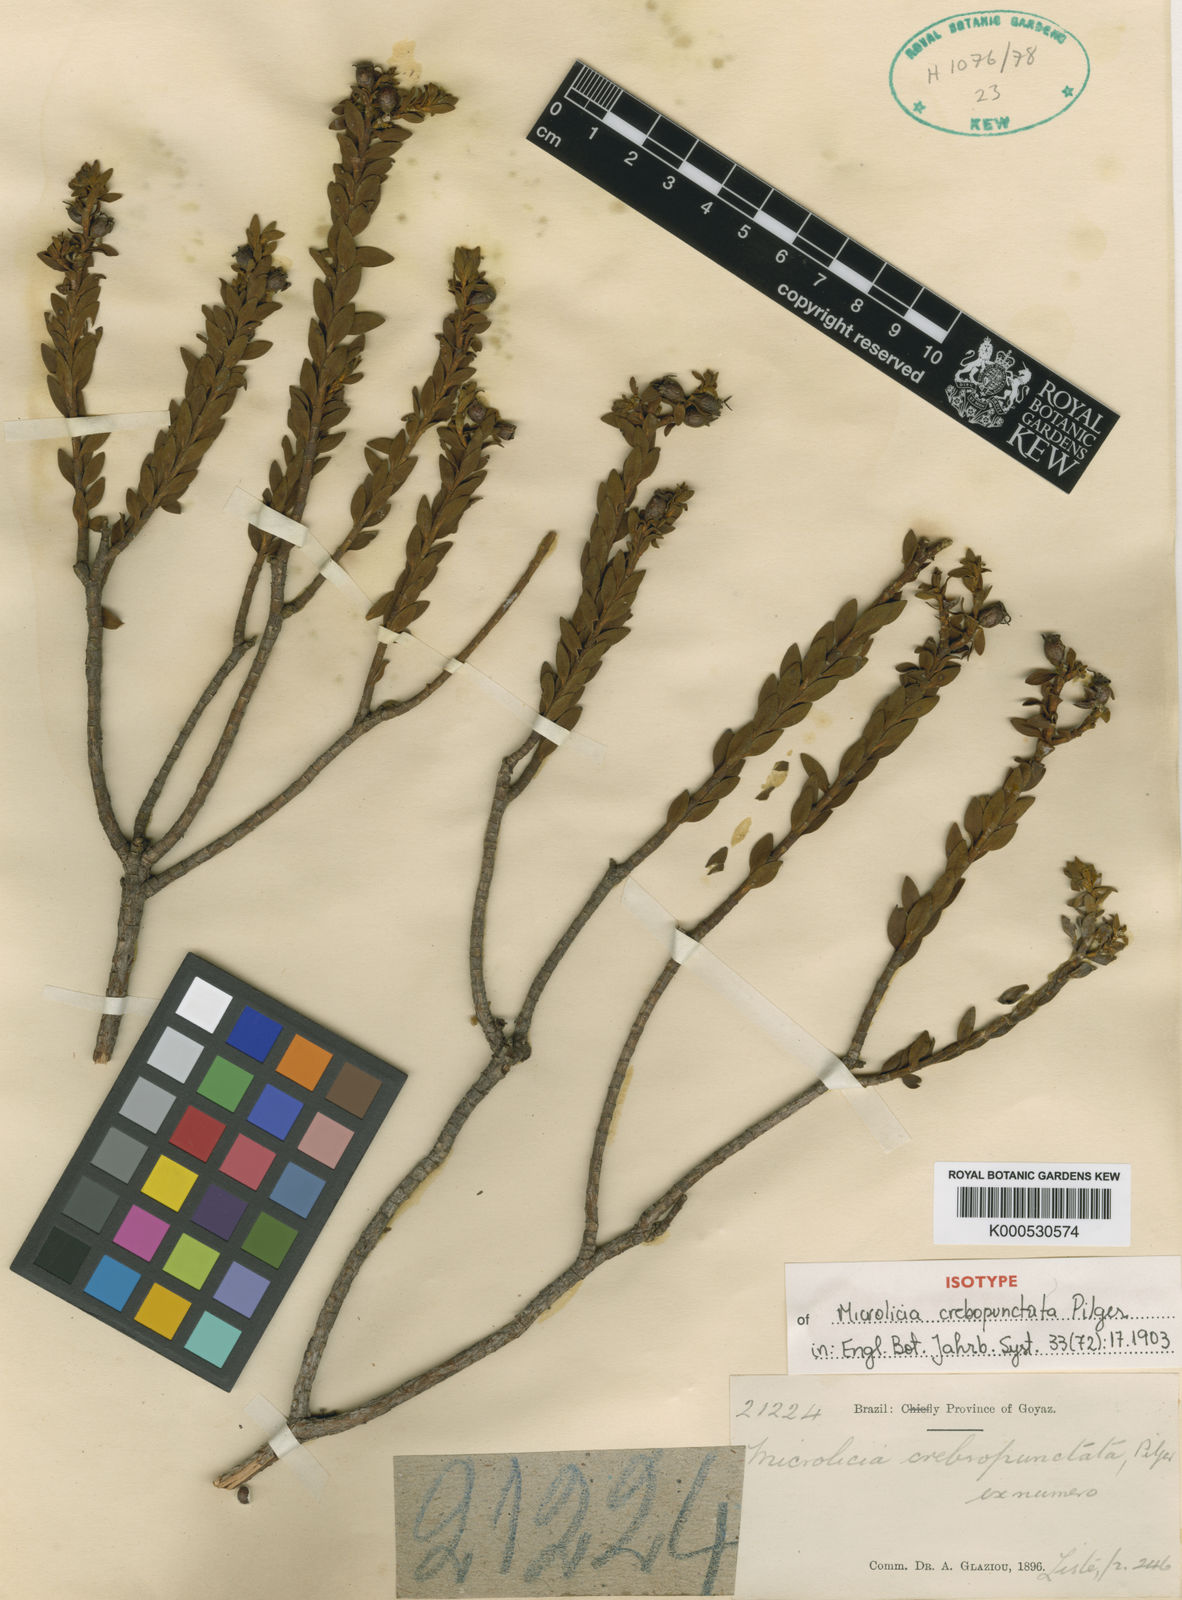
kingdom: Plantae
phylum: Tracheophyta
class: Magnoliopsida
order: Myrtales
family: Melastomataceae
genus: Microlicia
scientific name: Microlicia crebropunctata
